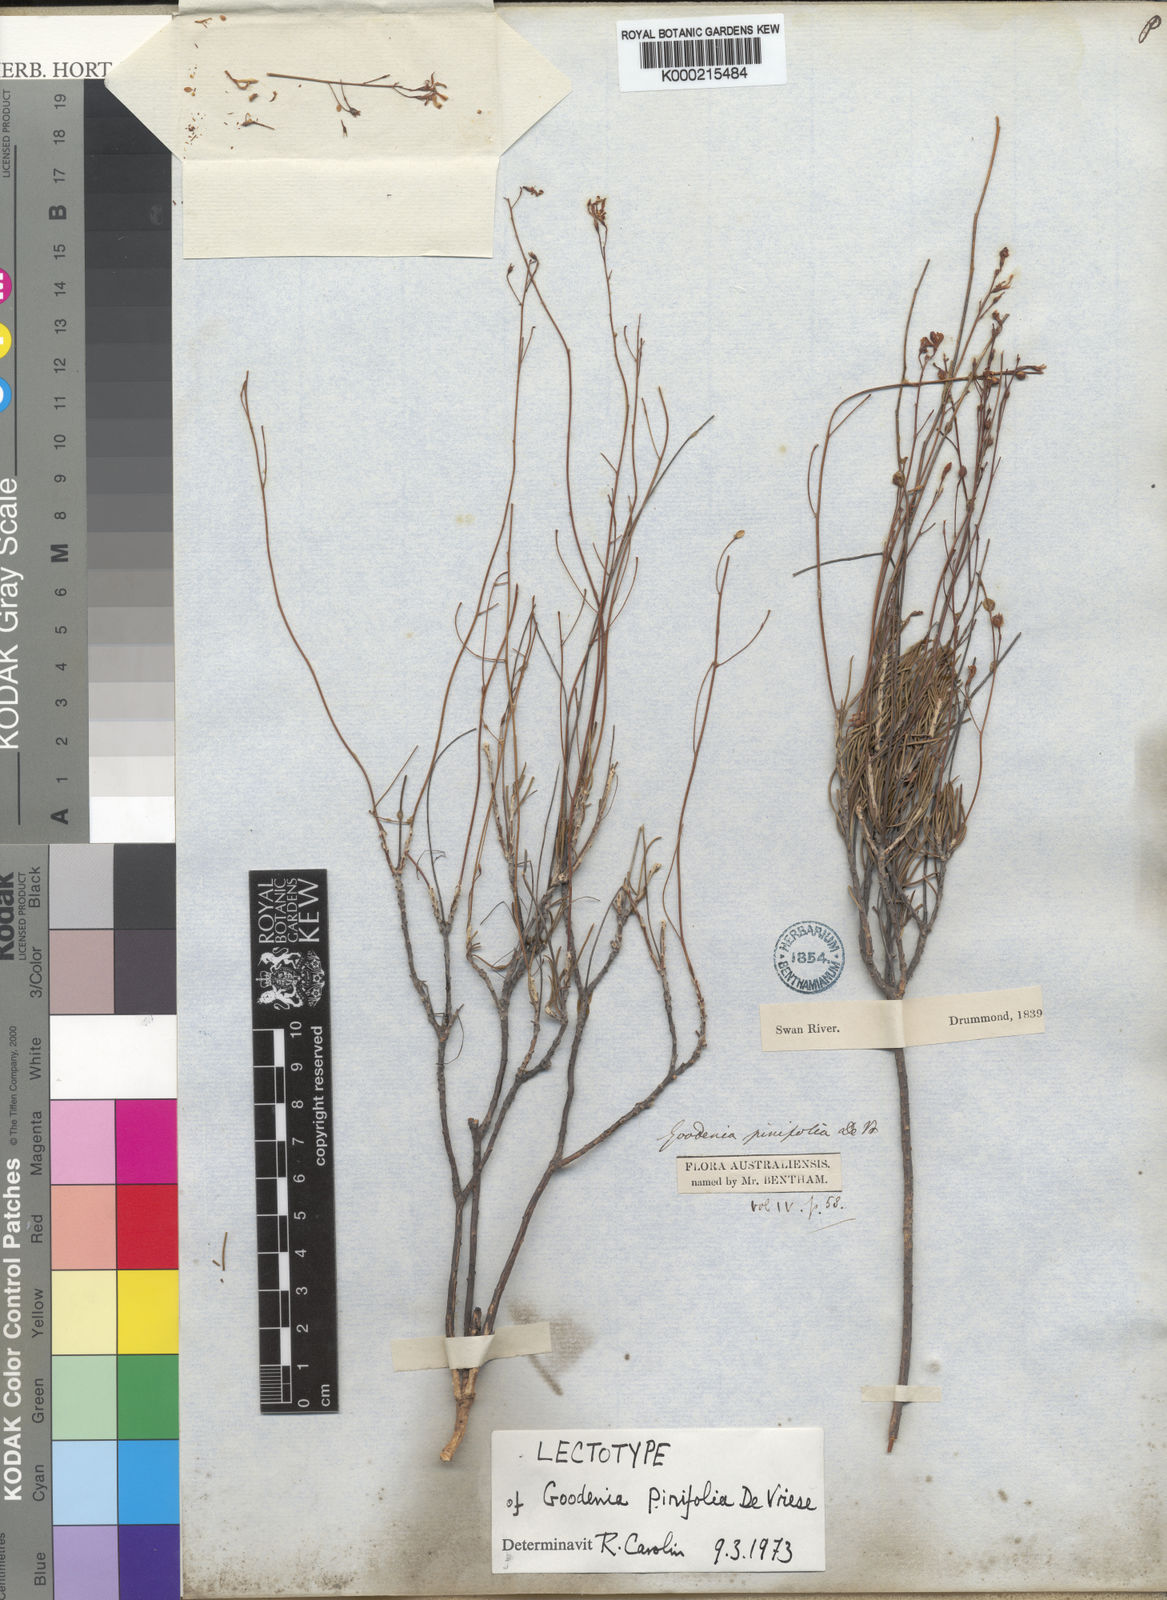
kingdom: Plantae
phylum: Tracheophyta
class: Magnoliopsida
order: Asterales
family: Goodeniaceae
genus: Goodenia
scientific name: Goodenia pinifolia
